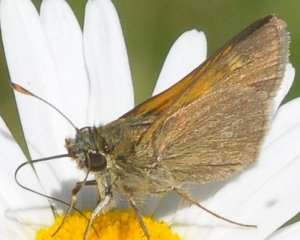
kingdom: Animalia
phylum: Arthropoda
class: Insecta
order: Lepidoptera
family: Hesperiidae
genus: Polites
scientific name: Polites themistocles
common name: Tawny-edged Skipper
